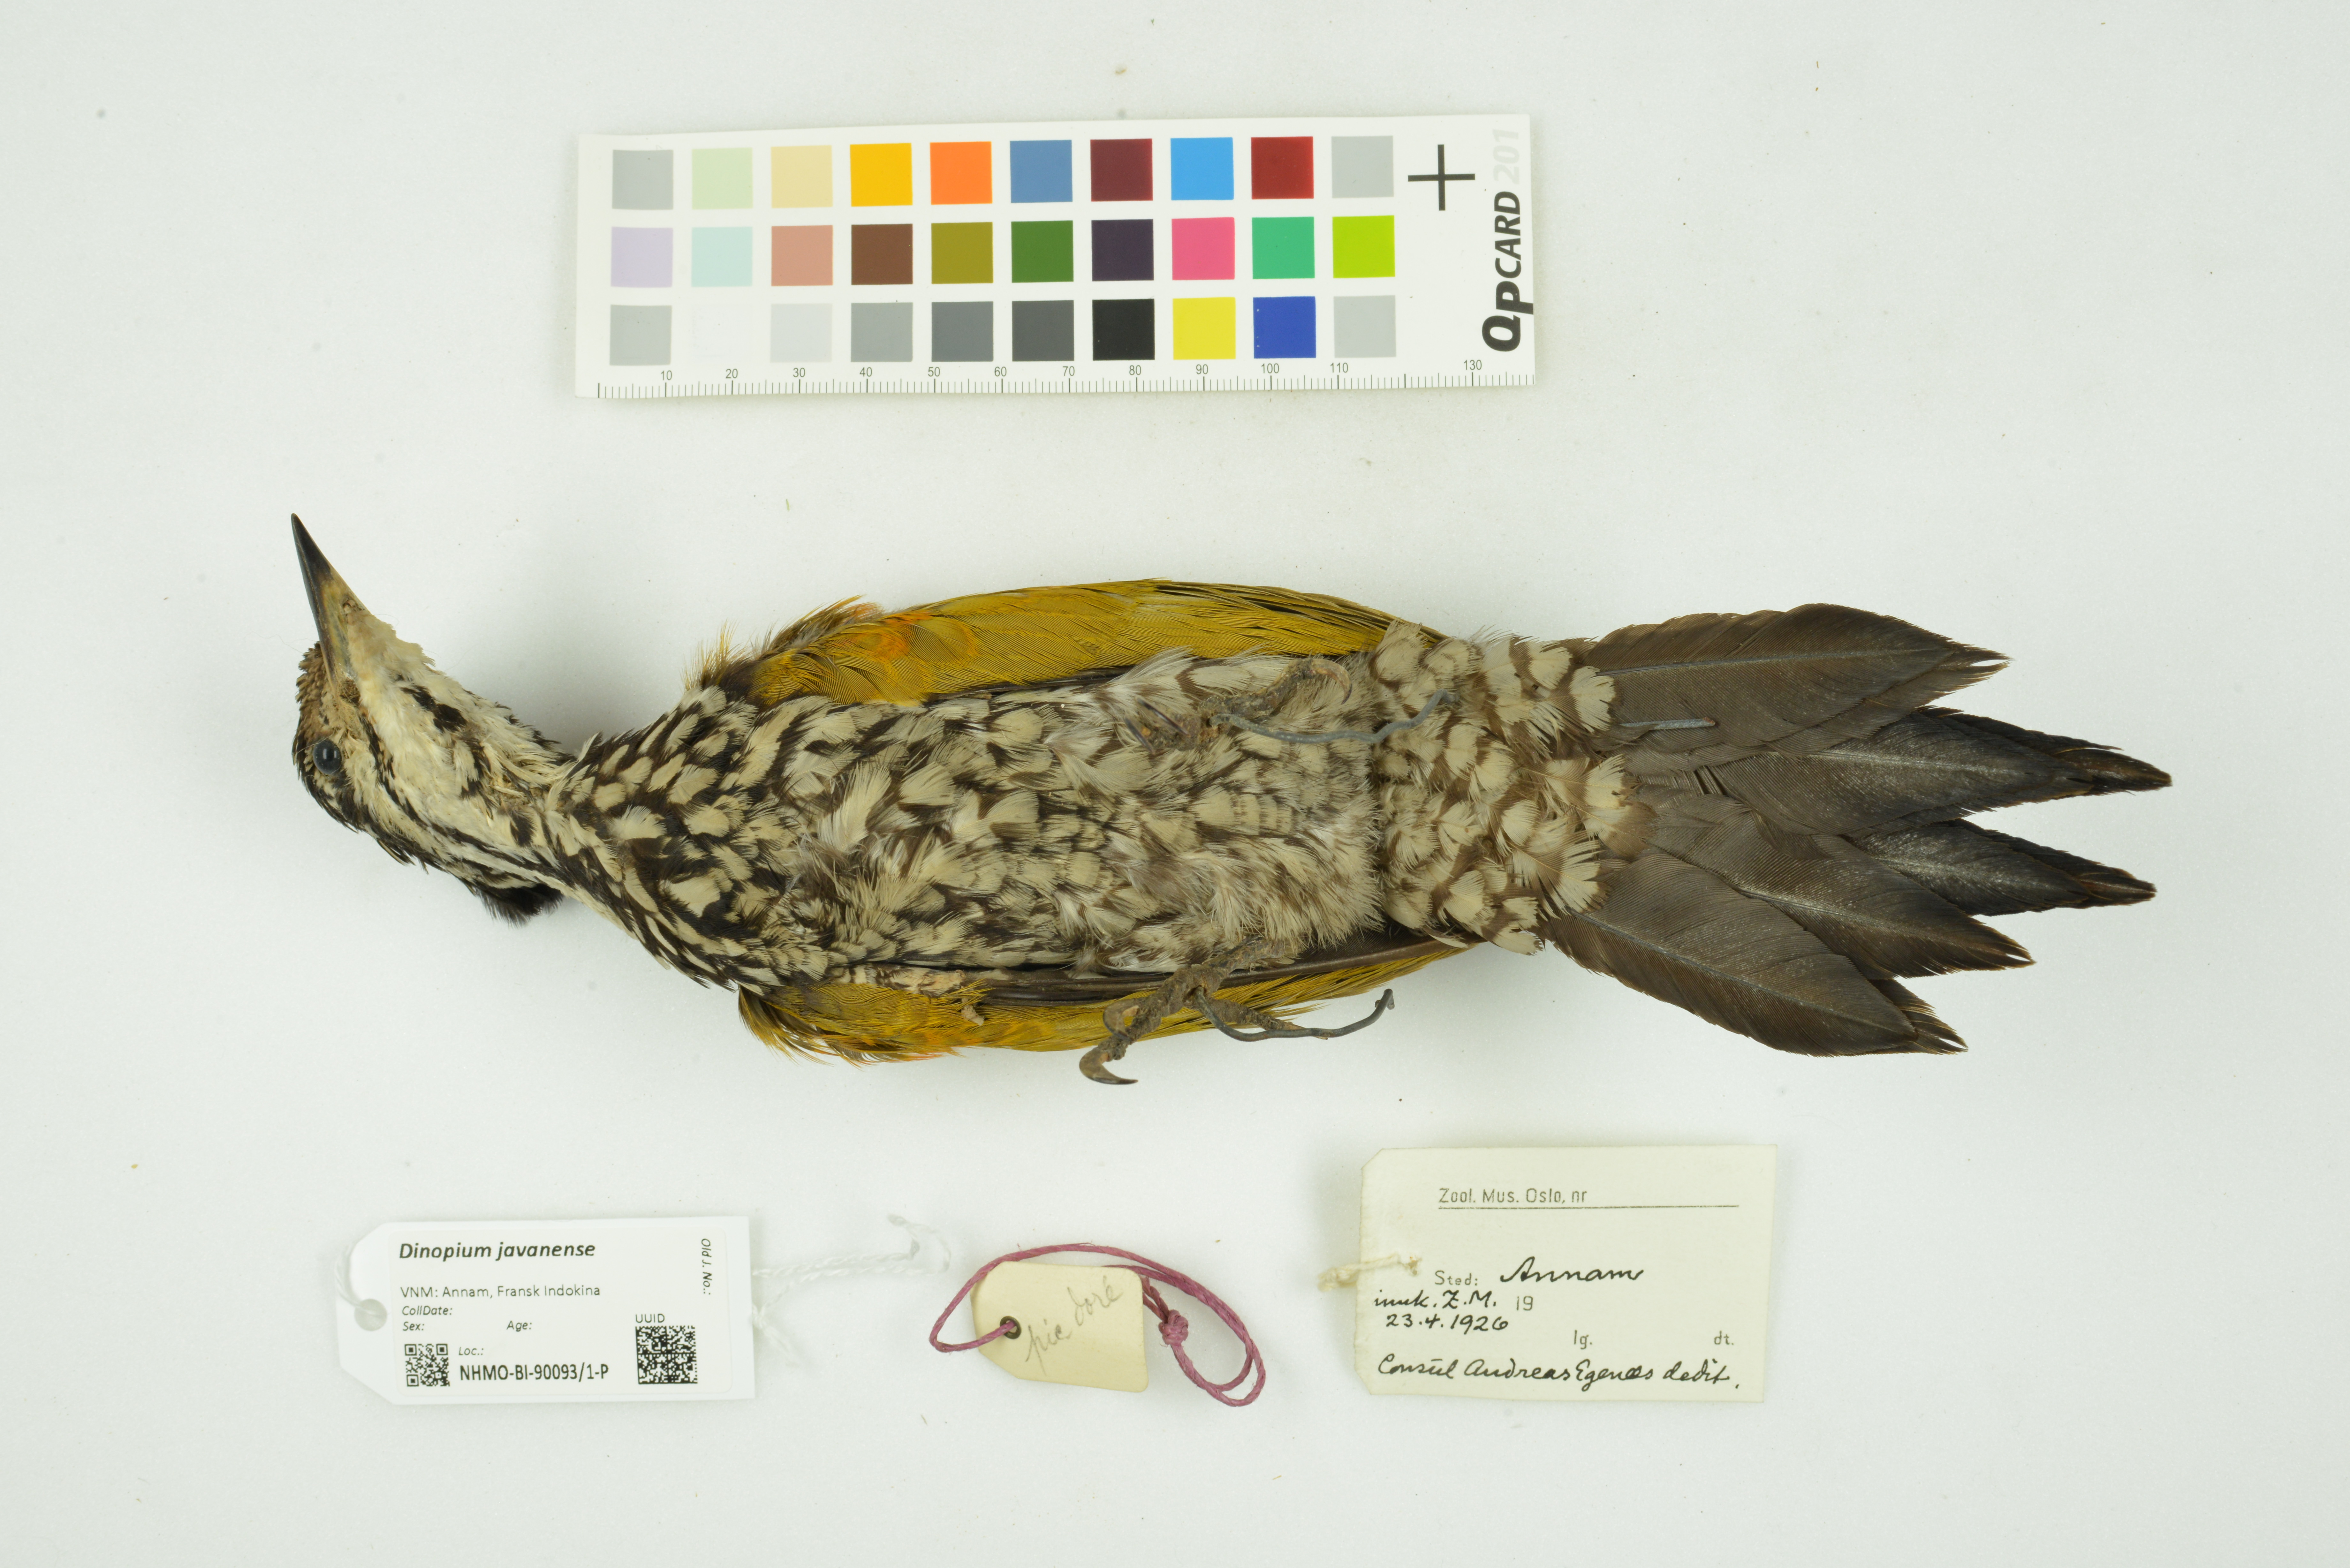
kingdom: Animalia
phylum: Chordata
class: Aves
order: Piciformes
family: Picidae
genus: Dinopium
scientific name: Dinopium javanense
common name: Common flameback
